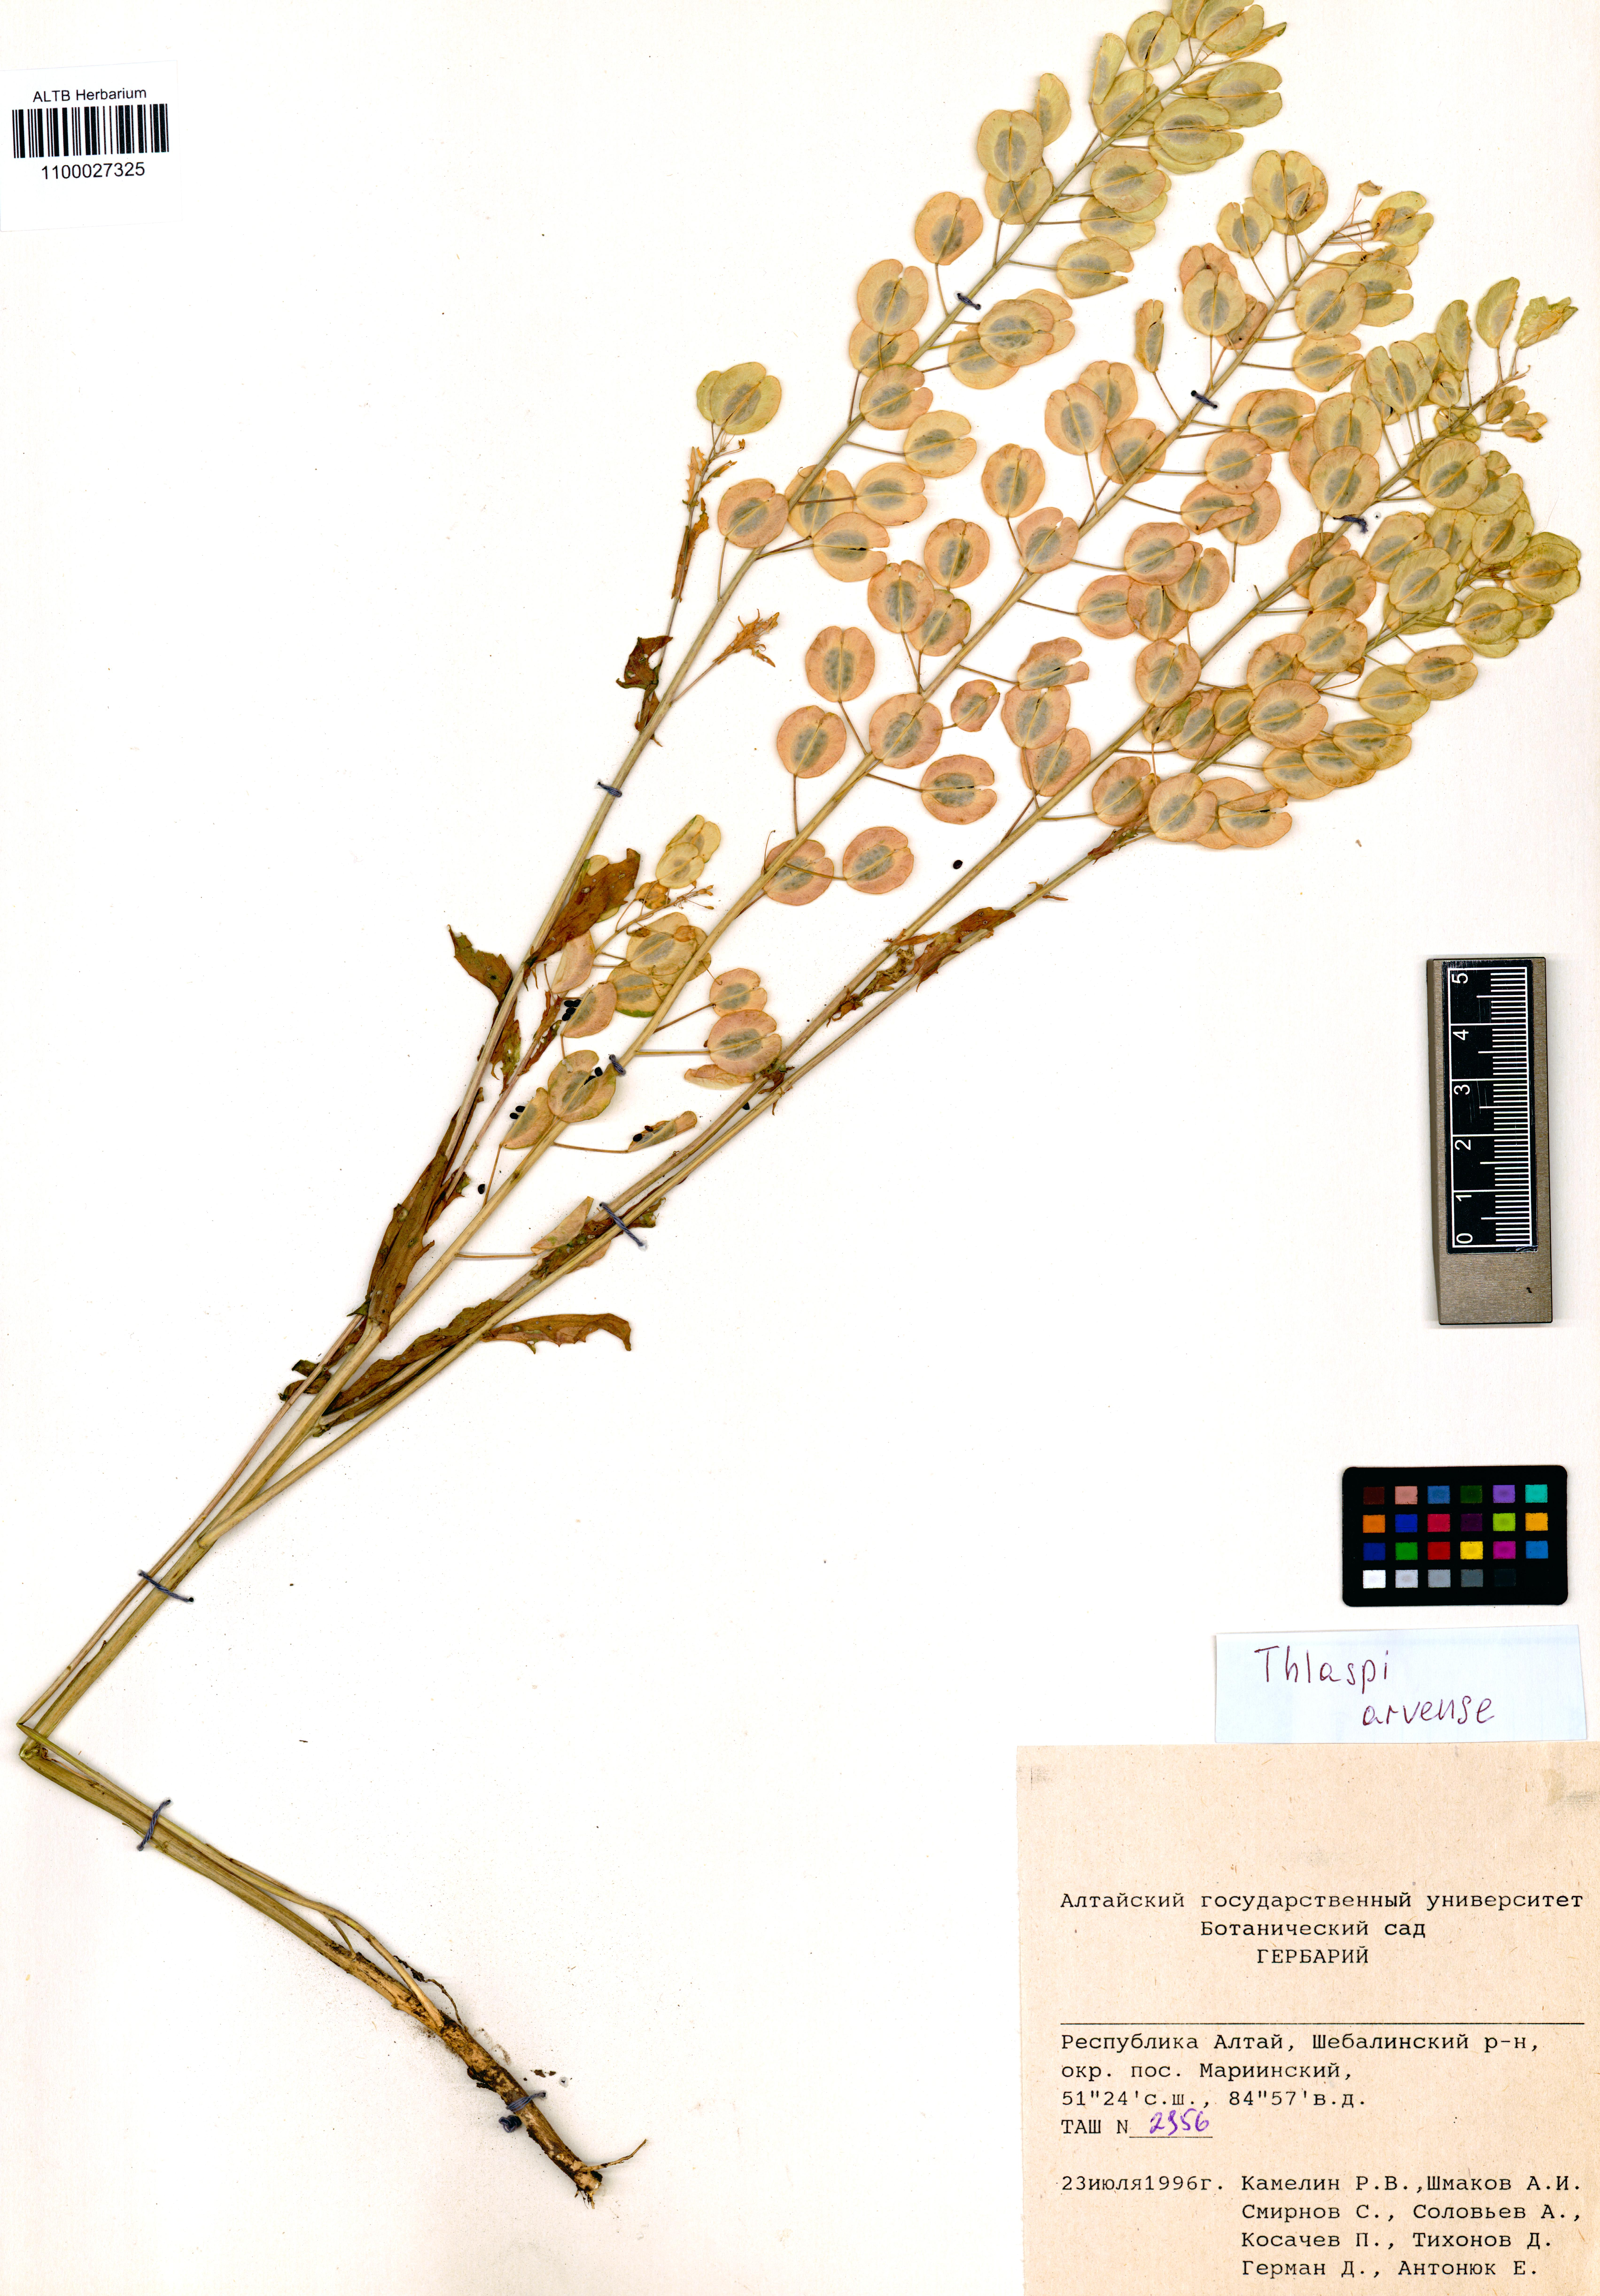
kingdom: Plantae
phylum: Tracheophyta
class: Magnoliopsida
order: Brassicales
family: Brassicaceae
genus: Thlaspi
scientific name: Thlaspi arvense
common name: Field pennycress
